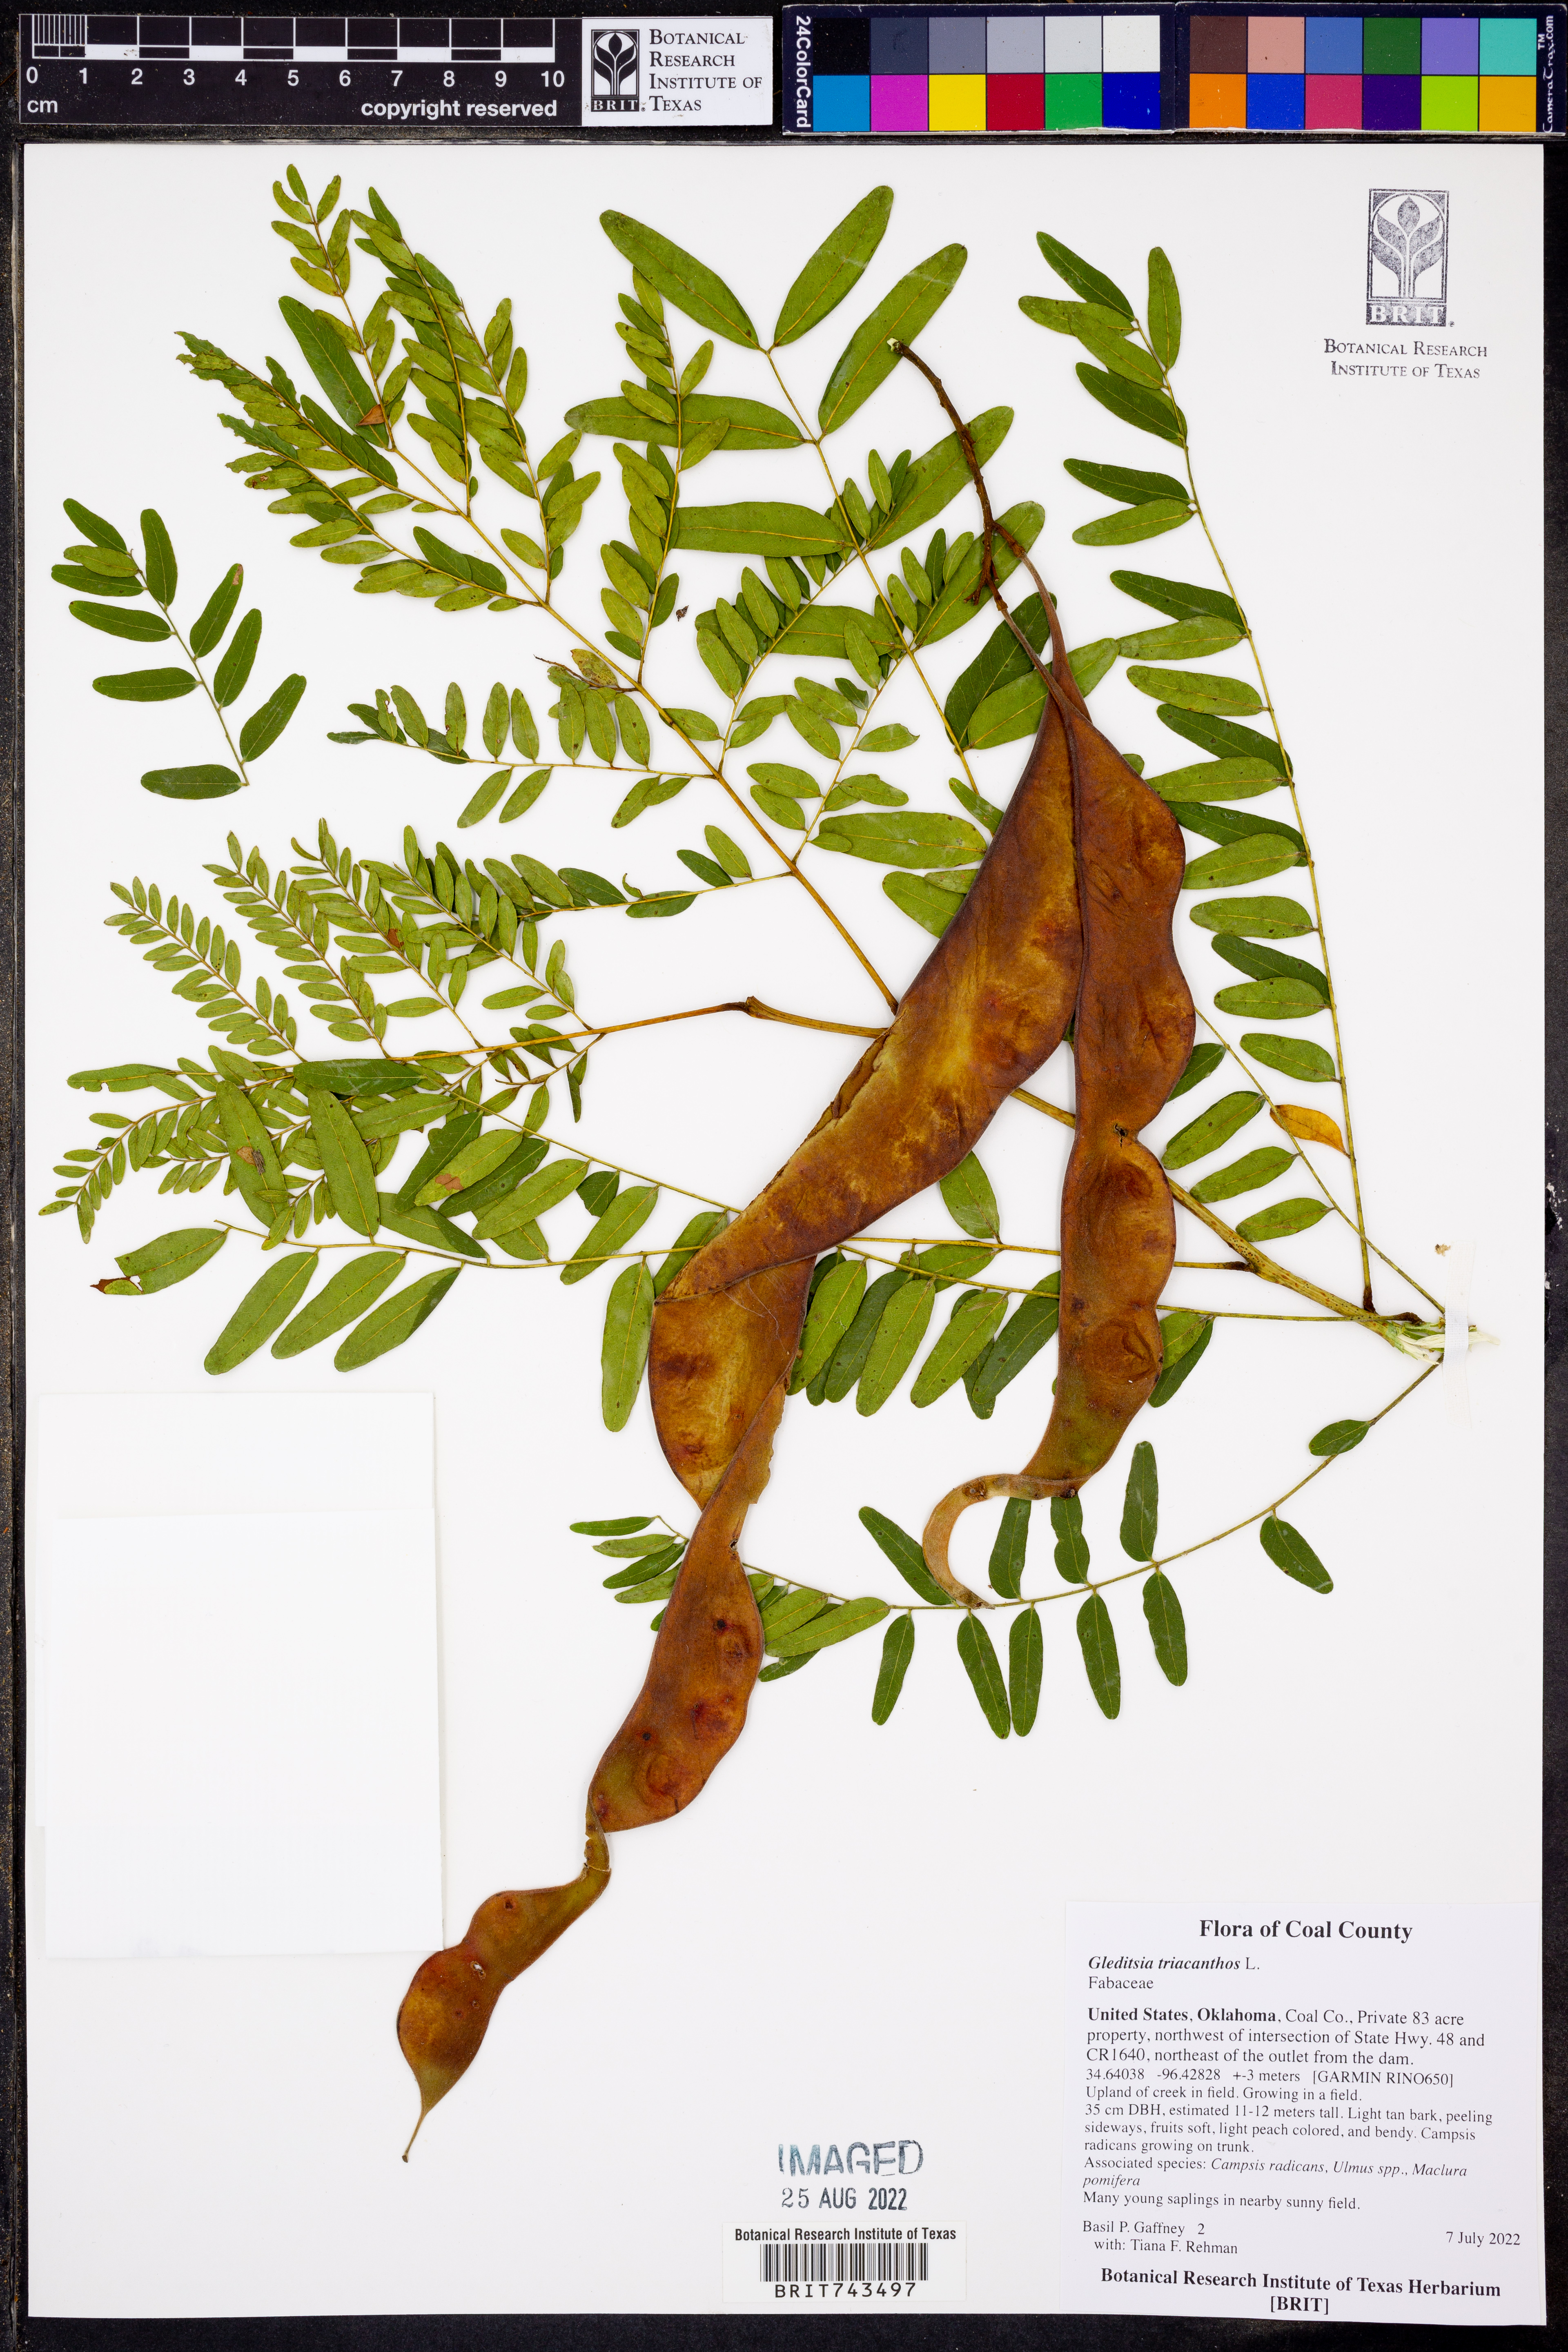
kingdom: Plantae
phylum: Tracheophyta
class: Magnoliopsida
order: Fabales
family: Fabaceae
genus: Gleditsia
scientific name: Gleditsia triacanthos
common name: Common honeylocust
